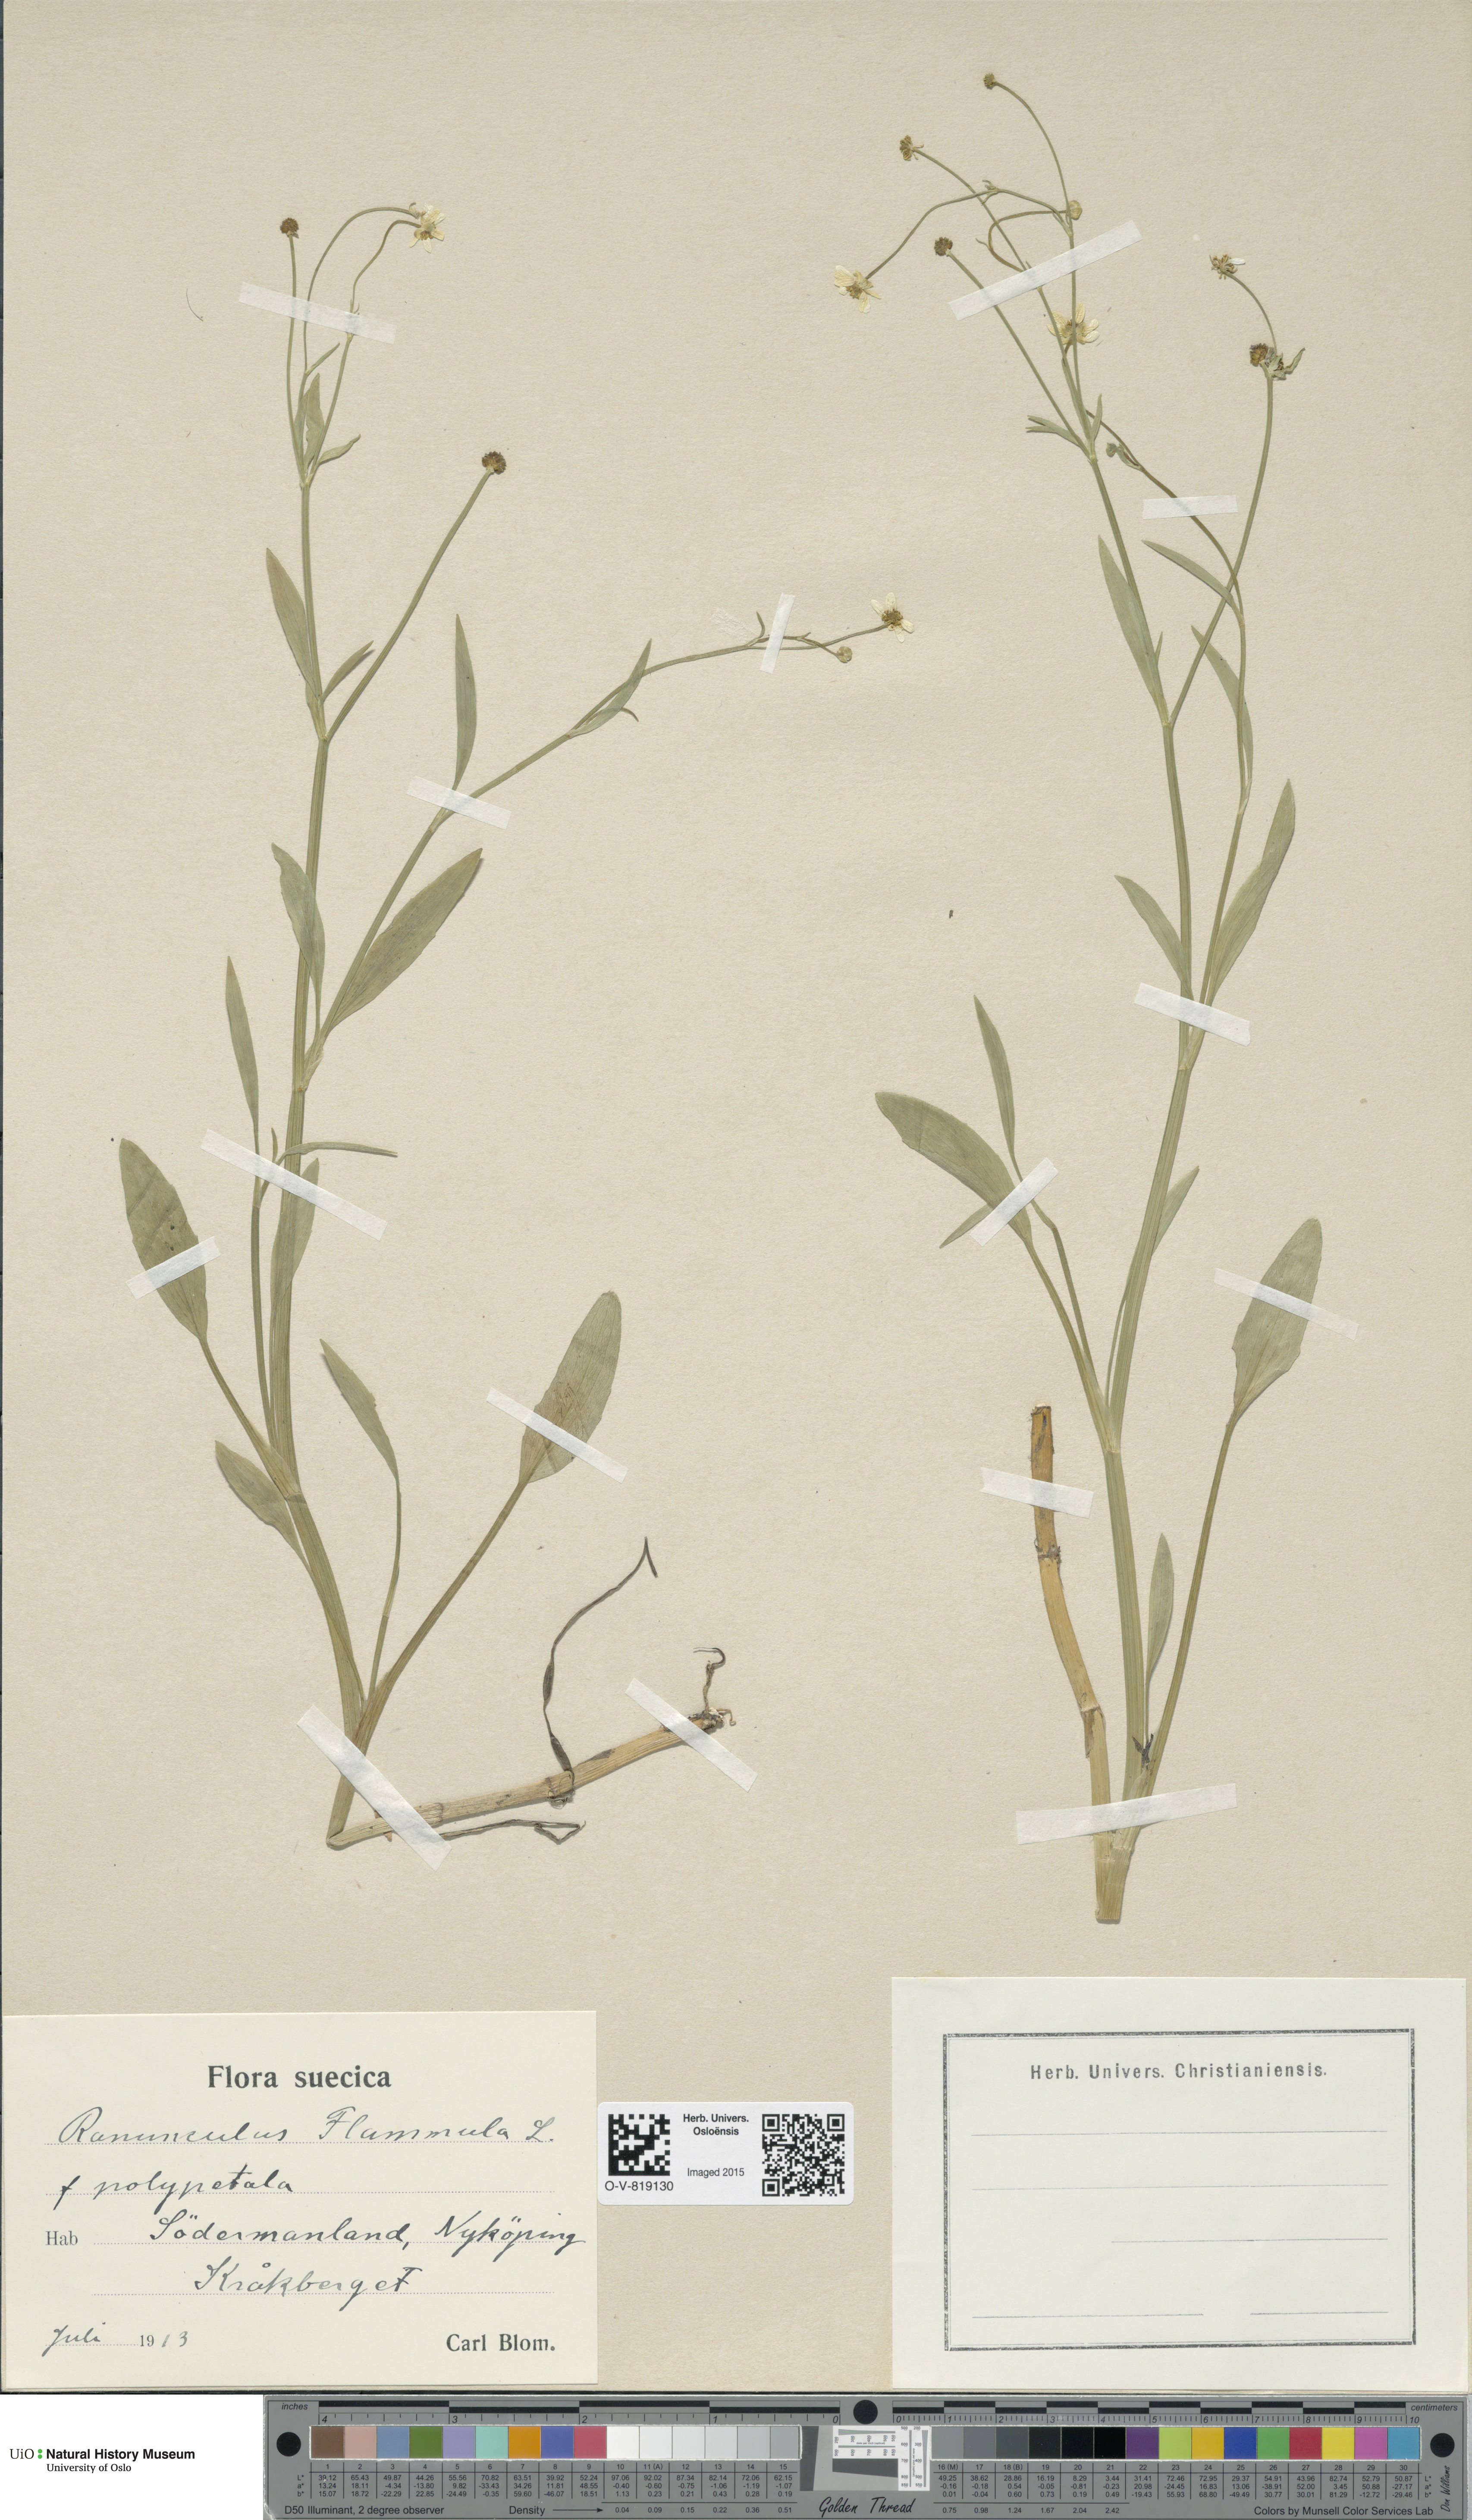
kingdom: Plantae
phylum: Tracheophyta
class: Magnoliopsida
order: Ranunculales
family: Ranunculaceae
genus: Ranunculus
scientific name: Ranunculus flammula
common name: Lesser spearwort
